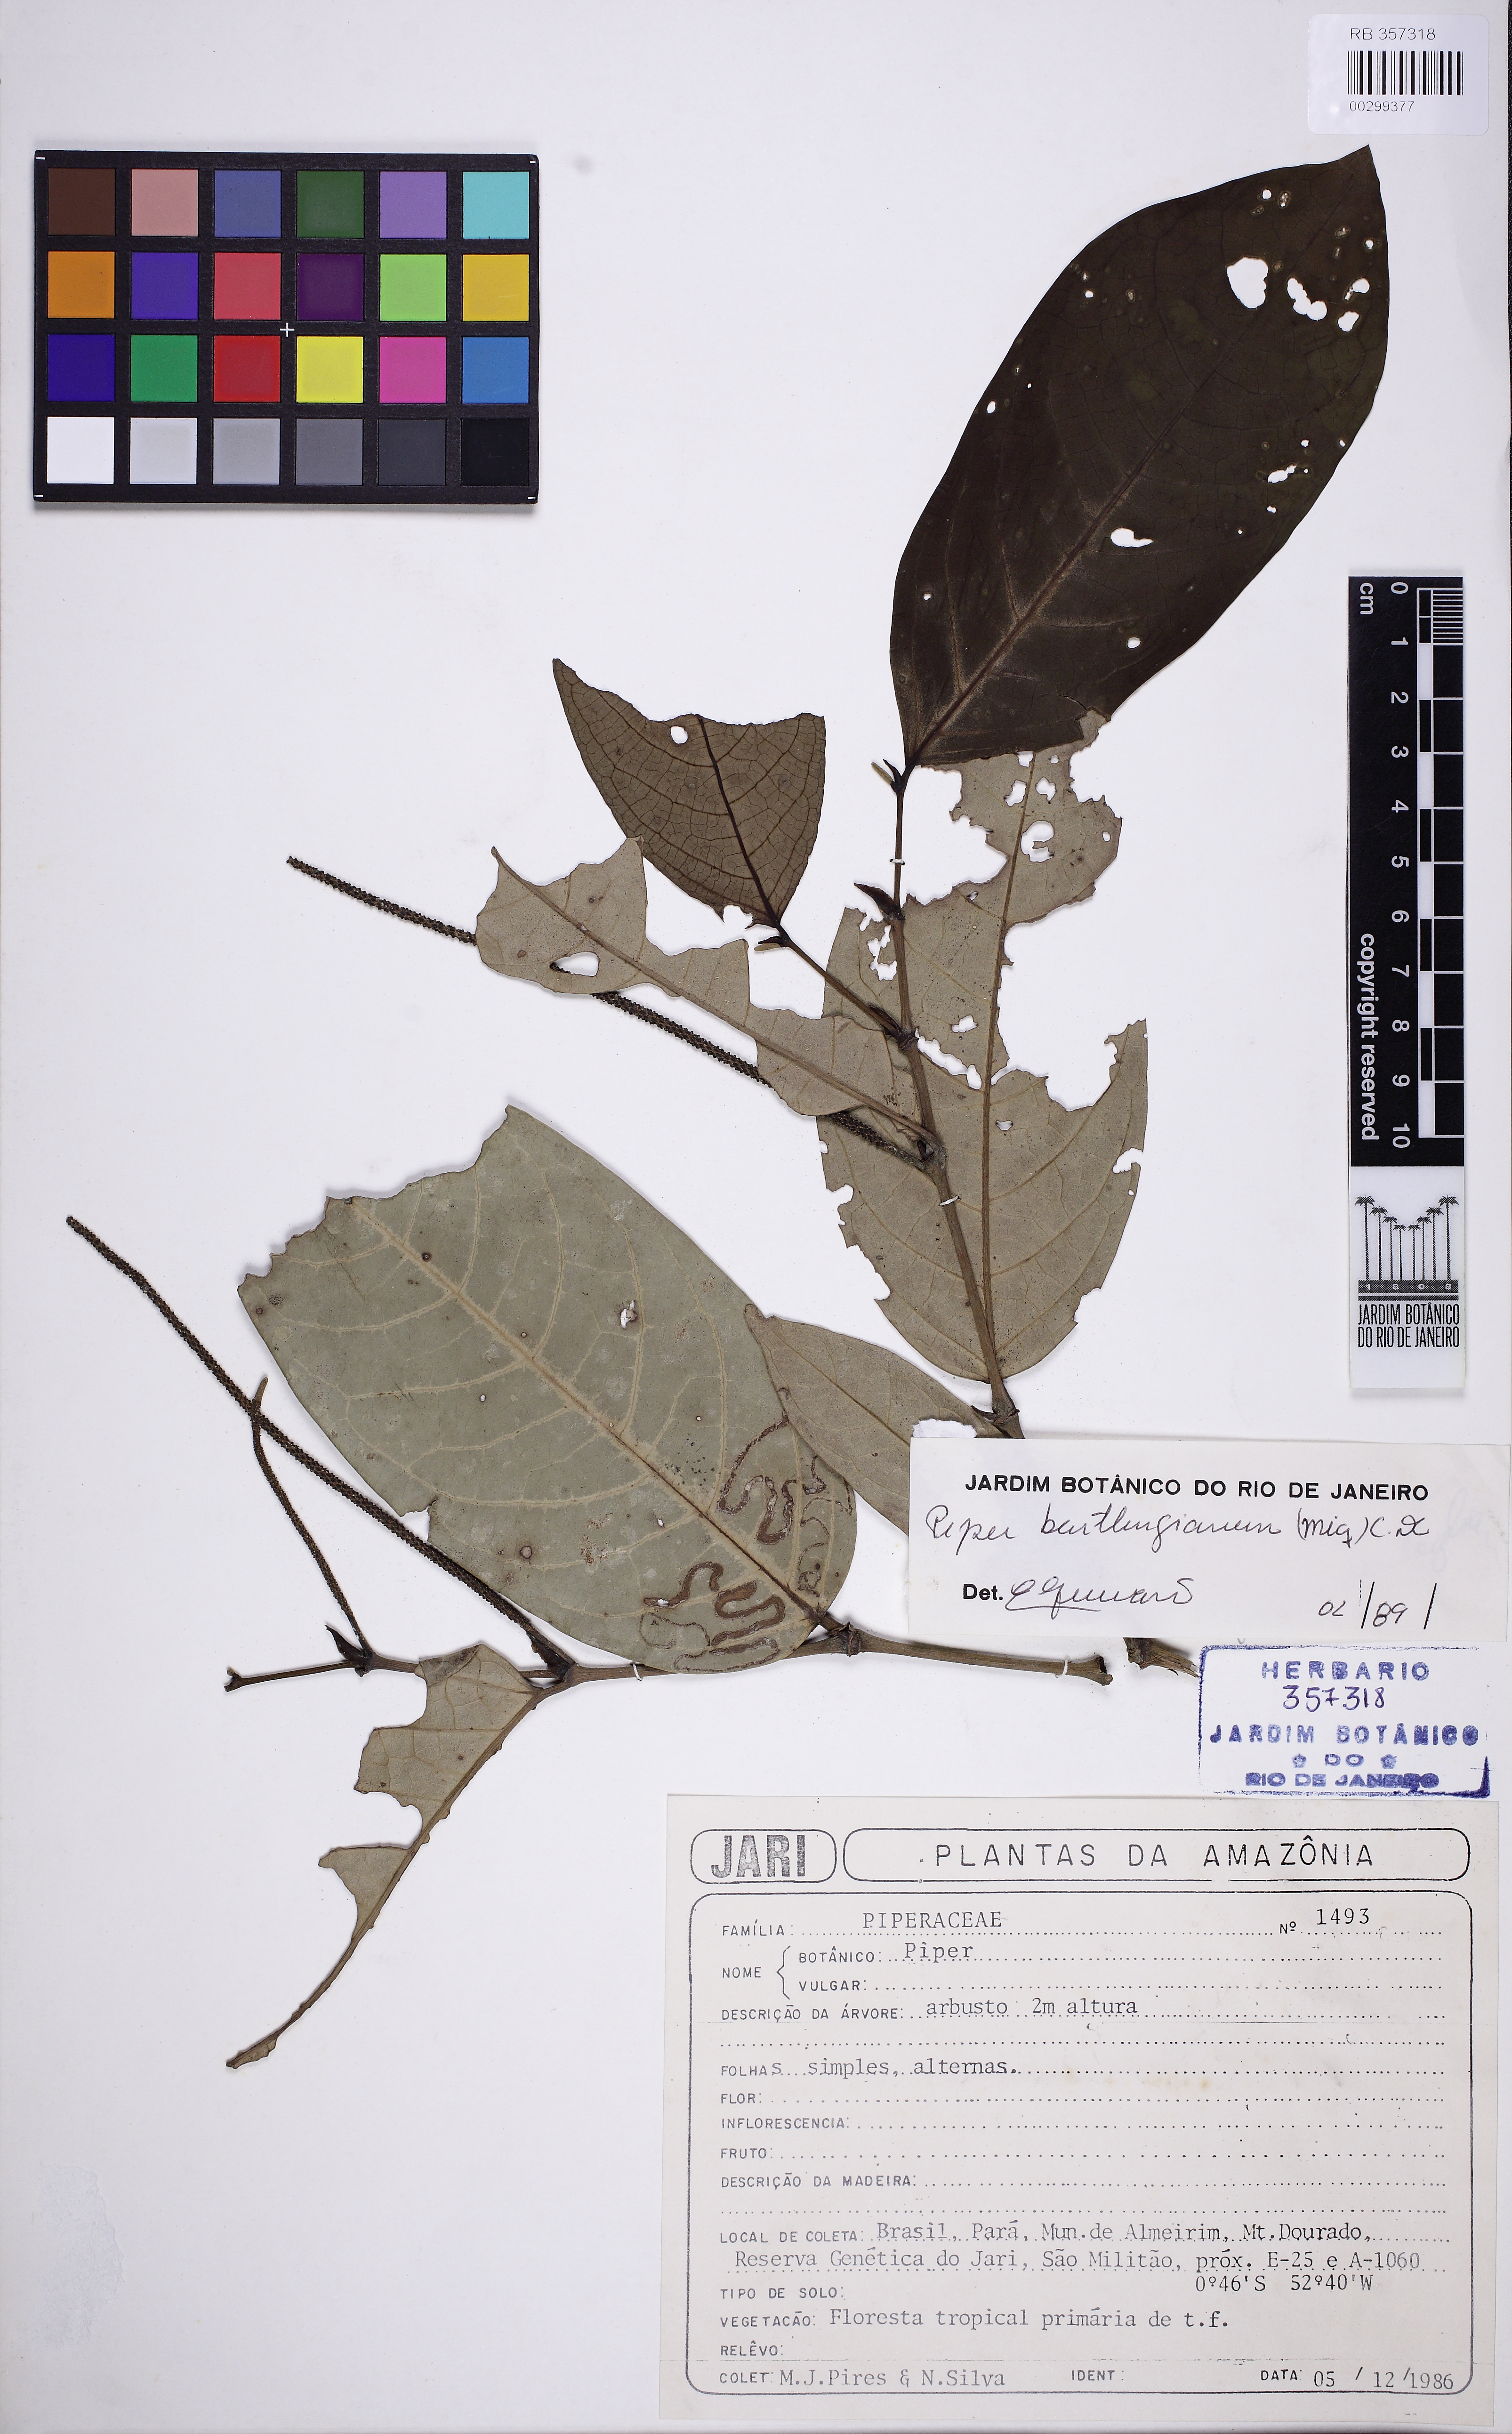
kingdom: Plantae
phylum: Tracheophyta
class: Magnoliopsida
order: Piperales
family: Piperaceae
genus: Piper
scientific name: Piper bartlingianum
